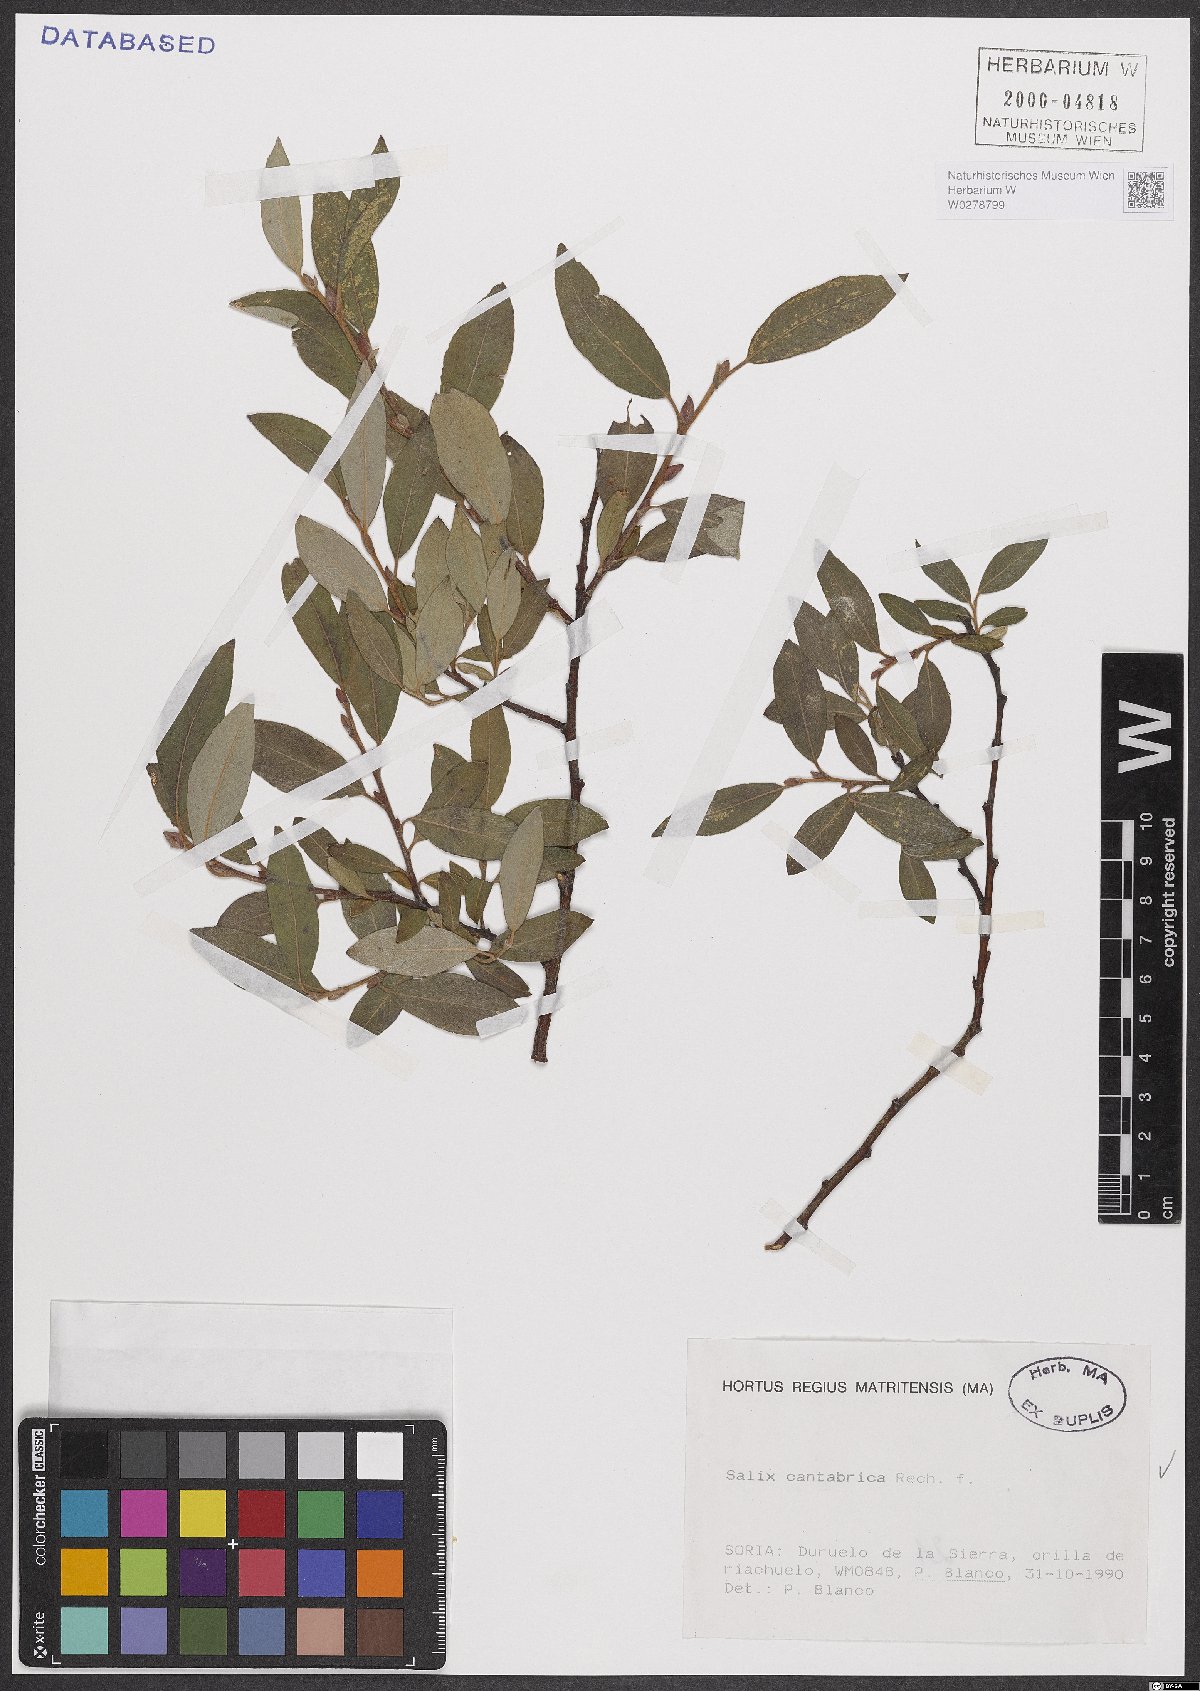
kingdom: Plantae
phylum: Tracheophyta
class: Magnoliopsida
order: Malpighiales
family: Salicaceae
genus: Salix
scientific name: Salix cantabrica
